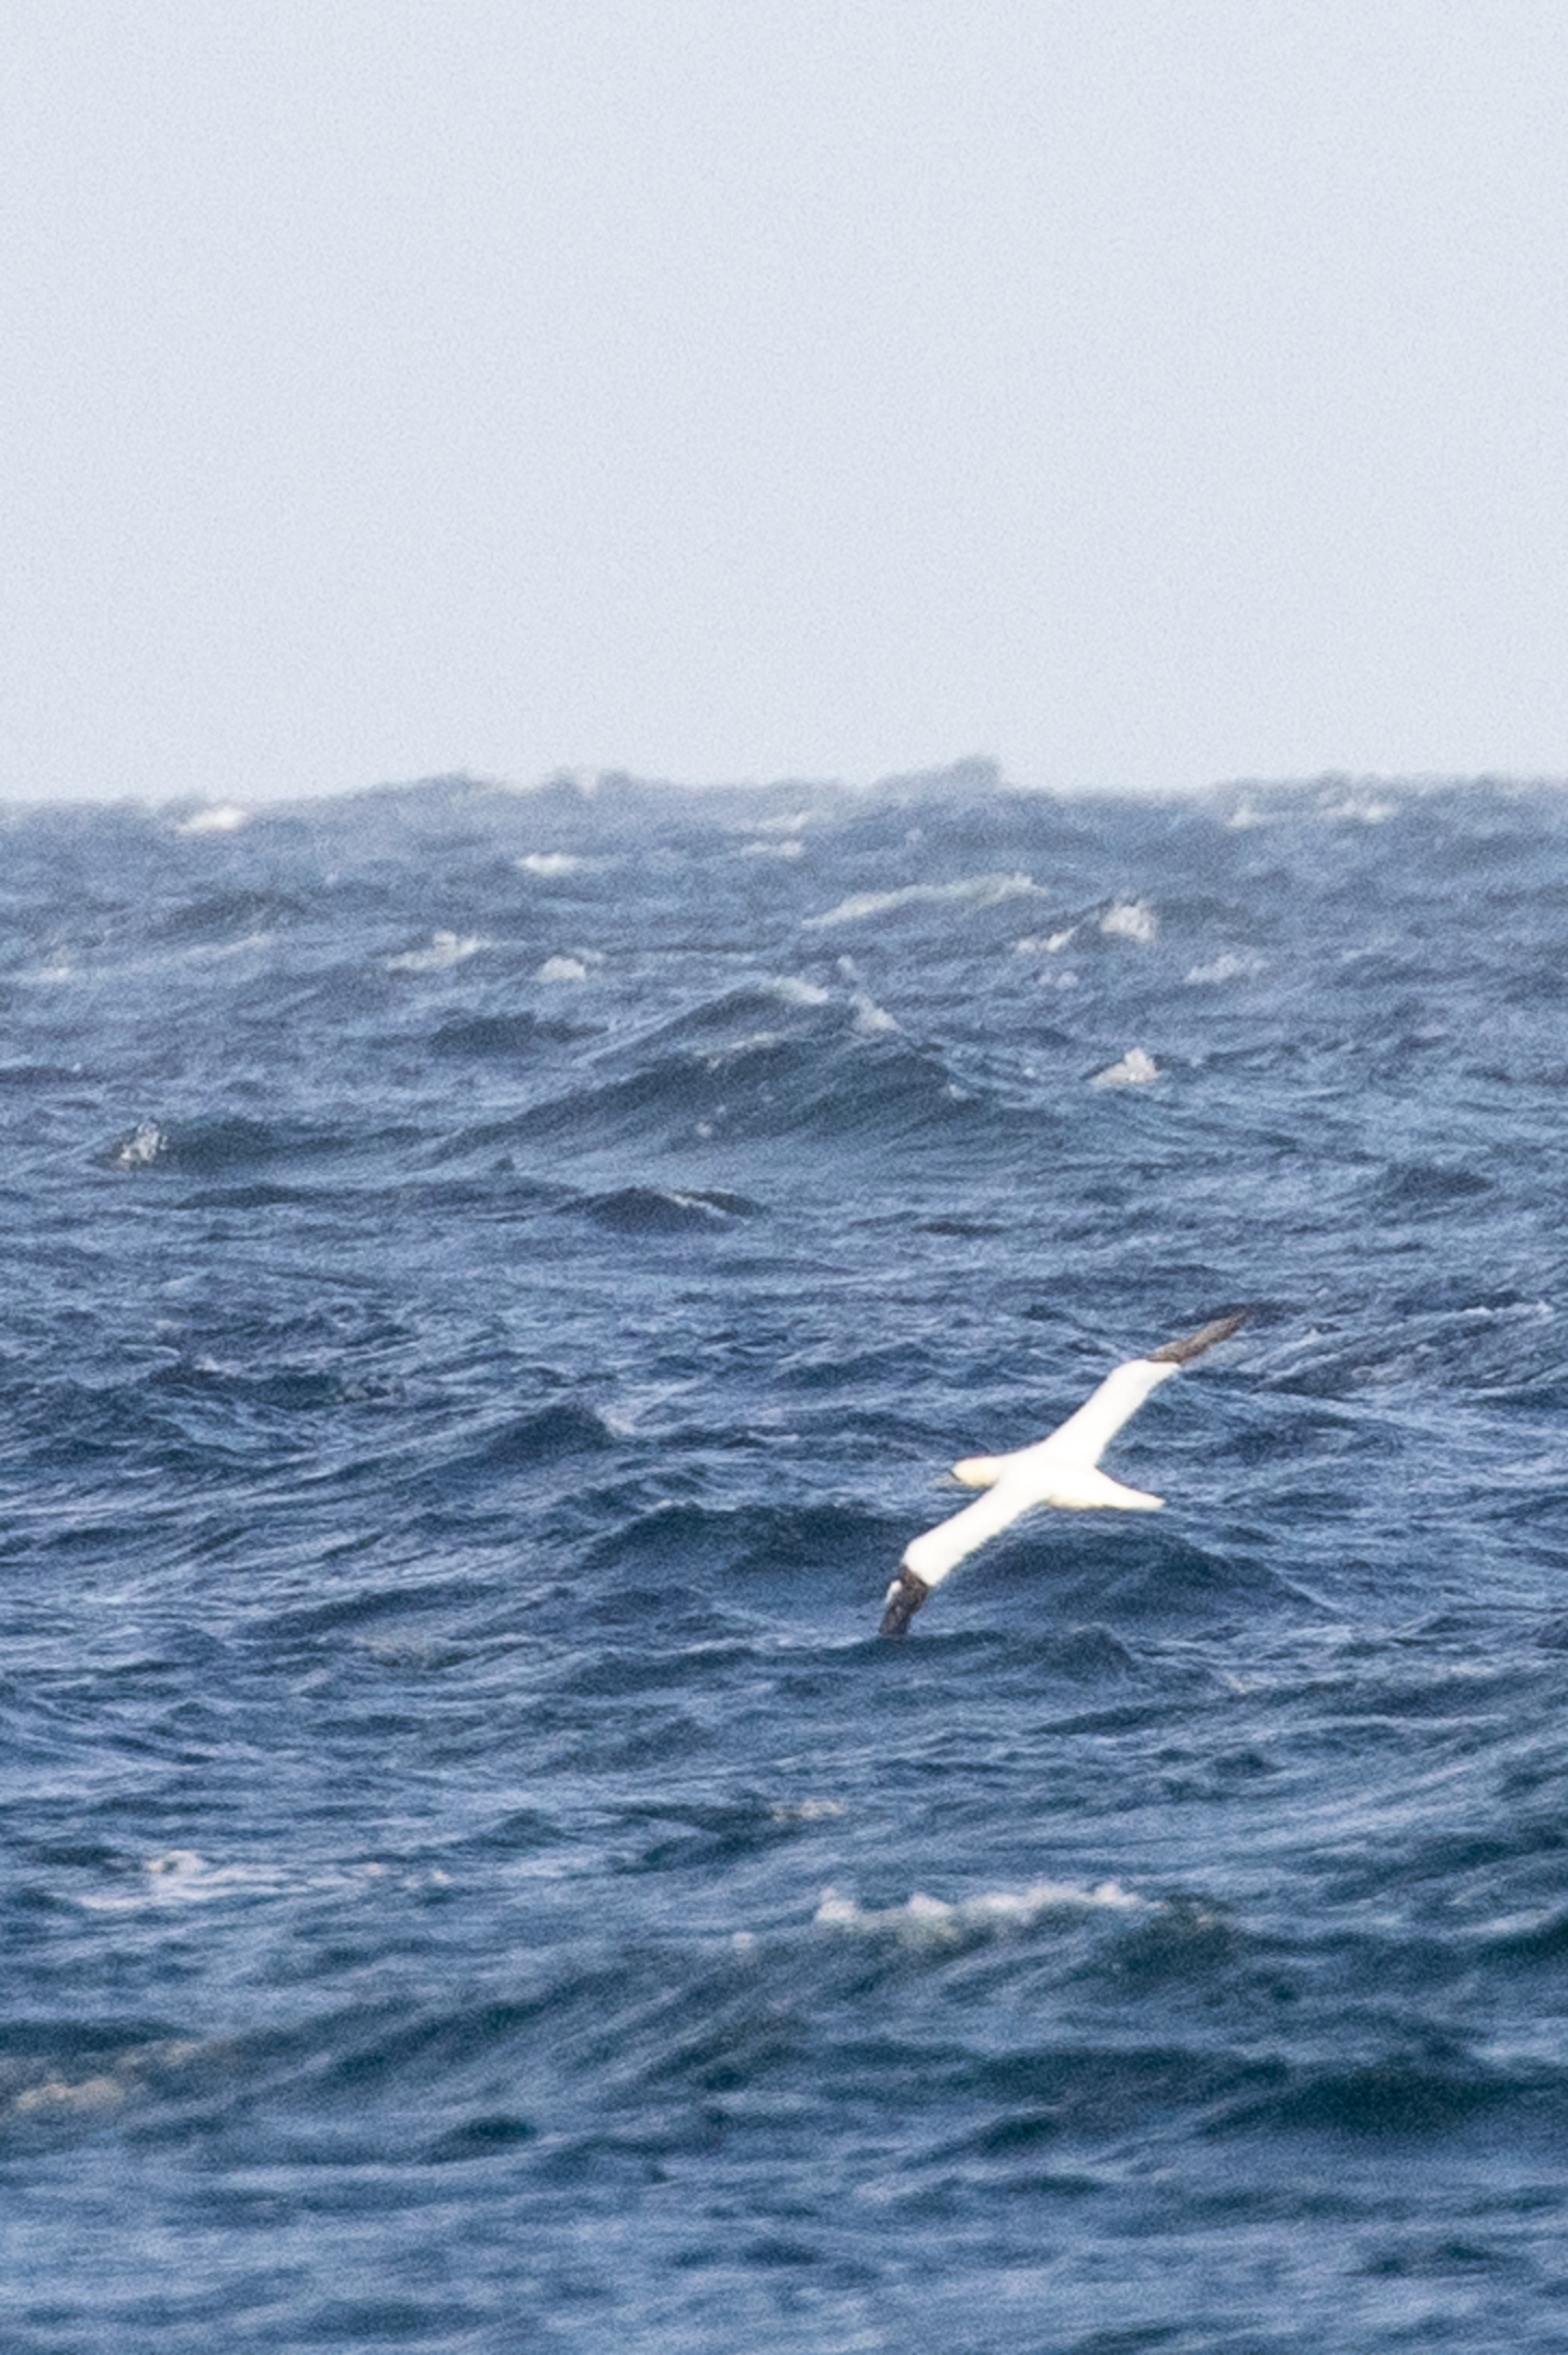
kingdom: Animalia
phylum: Chordata
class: Aves
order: Suliformes
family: Sulidae
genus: Morus
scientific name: Morus bassanus
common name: Sule
